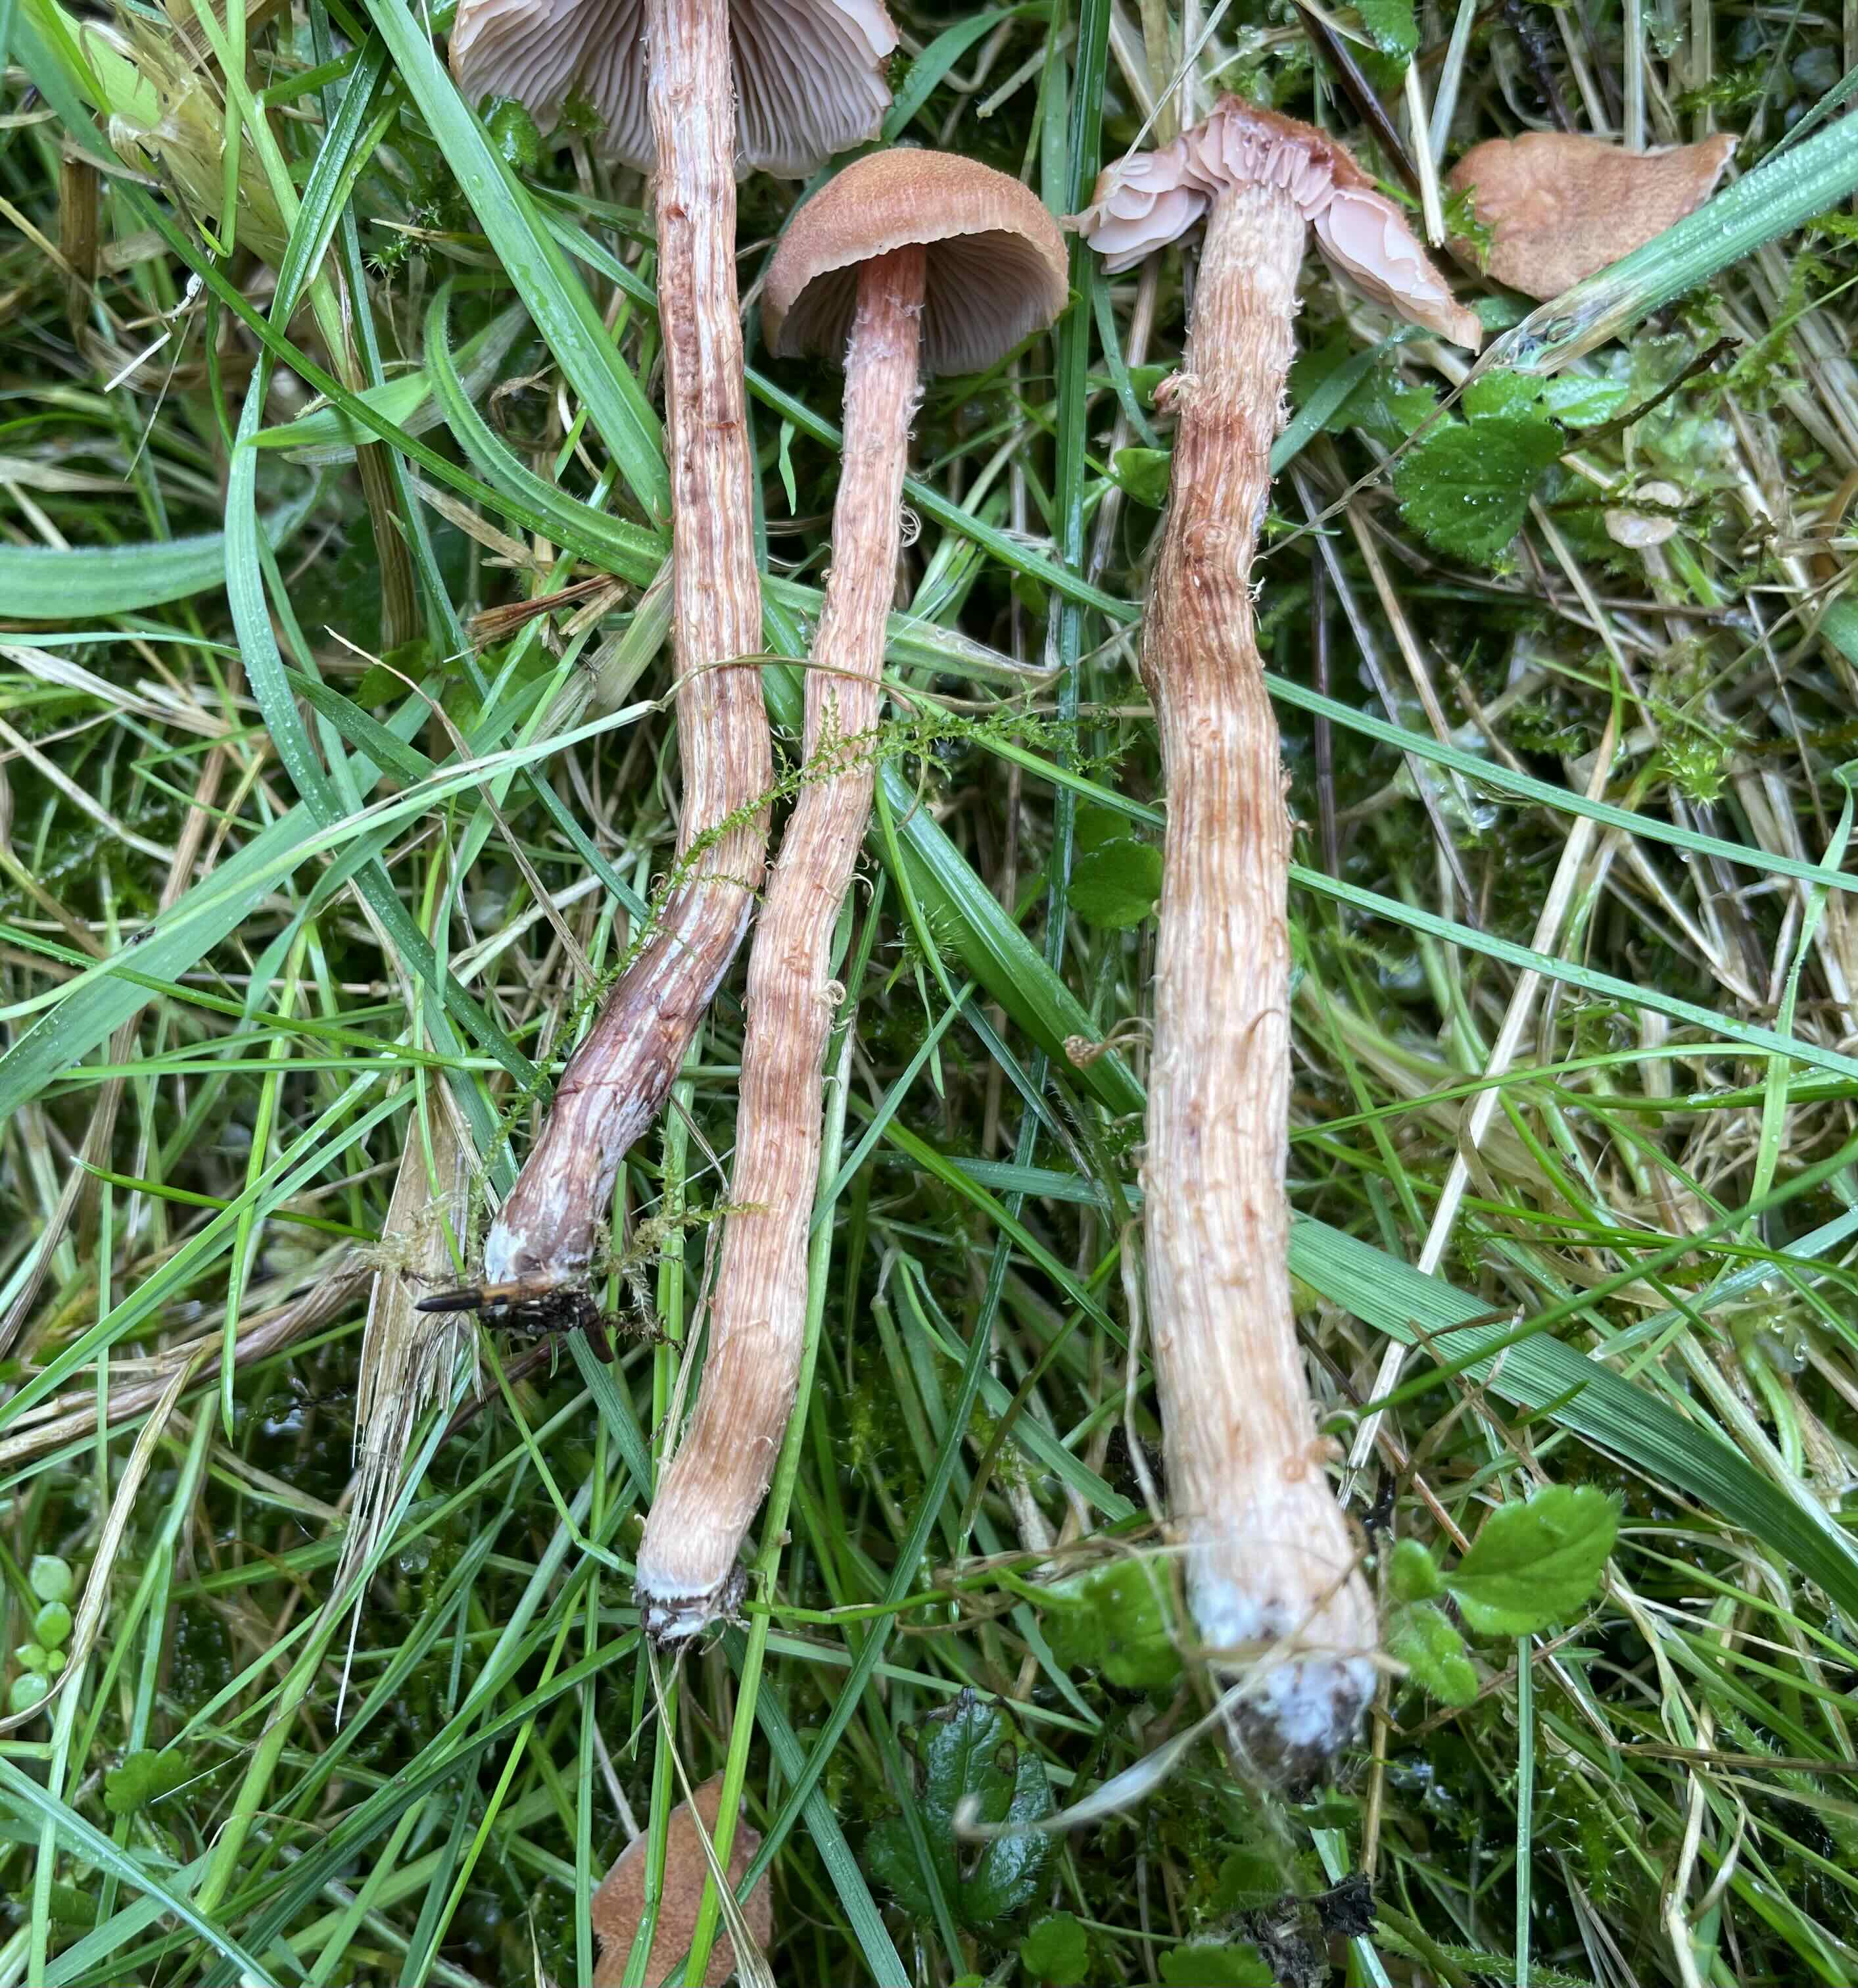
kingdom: Fungi
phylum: Basidiomycota
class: Agaricomycetes
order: Agaricales
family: Hydnangiaceae
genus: Laccaria
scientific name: Laccaria proxima
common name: stor ametysthat
